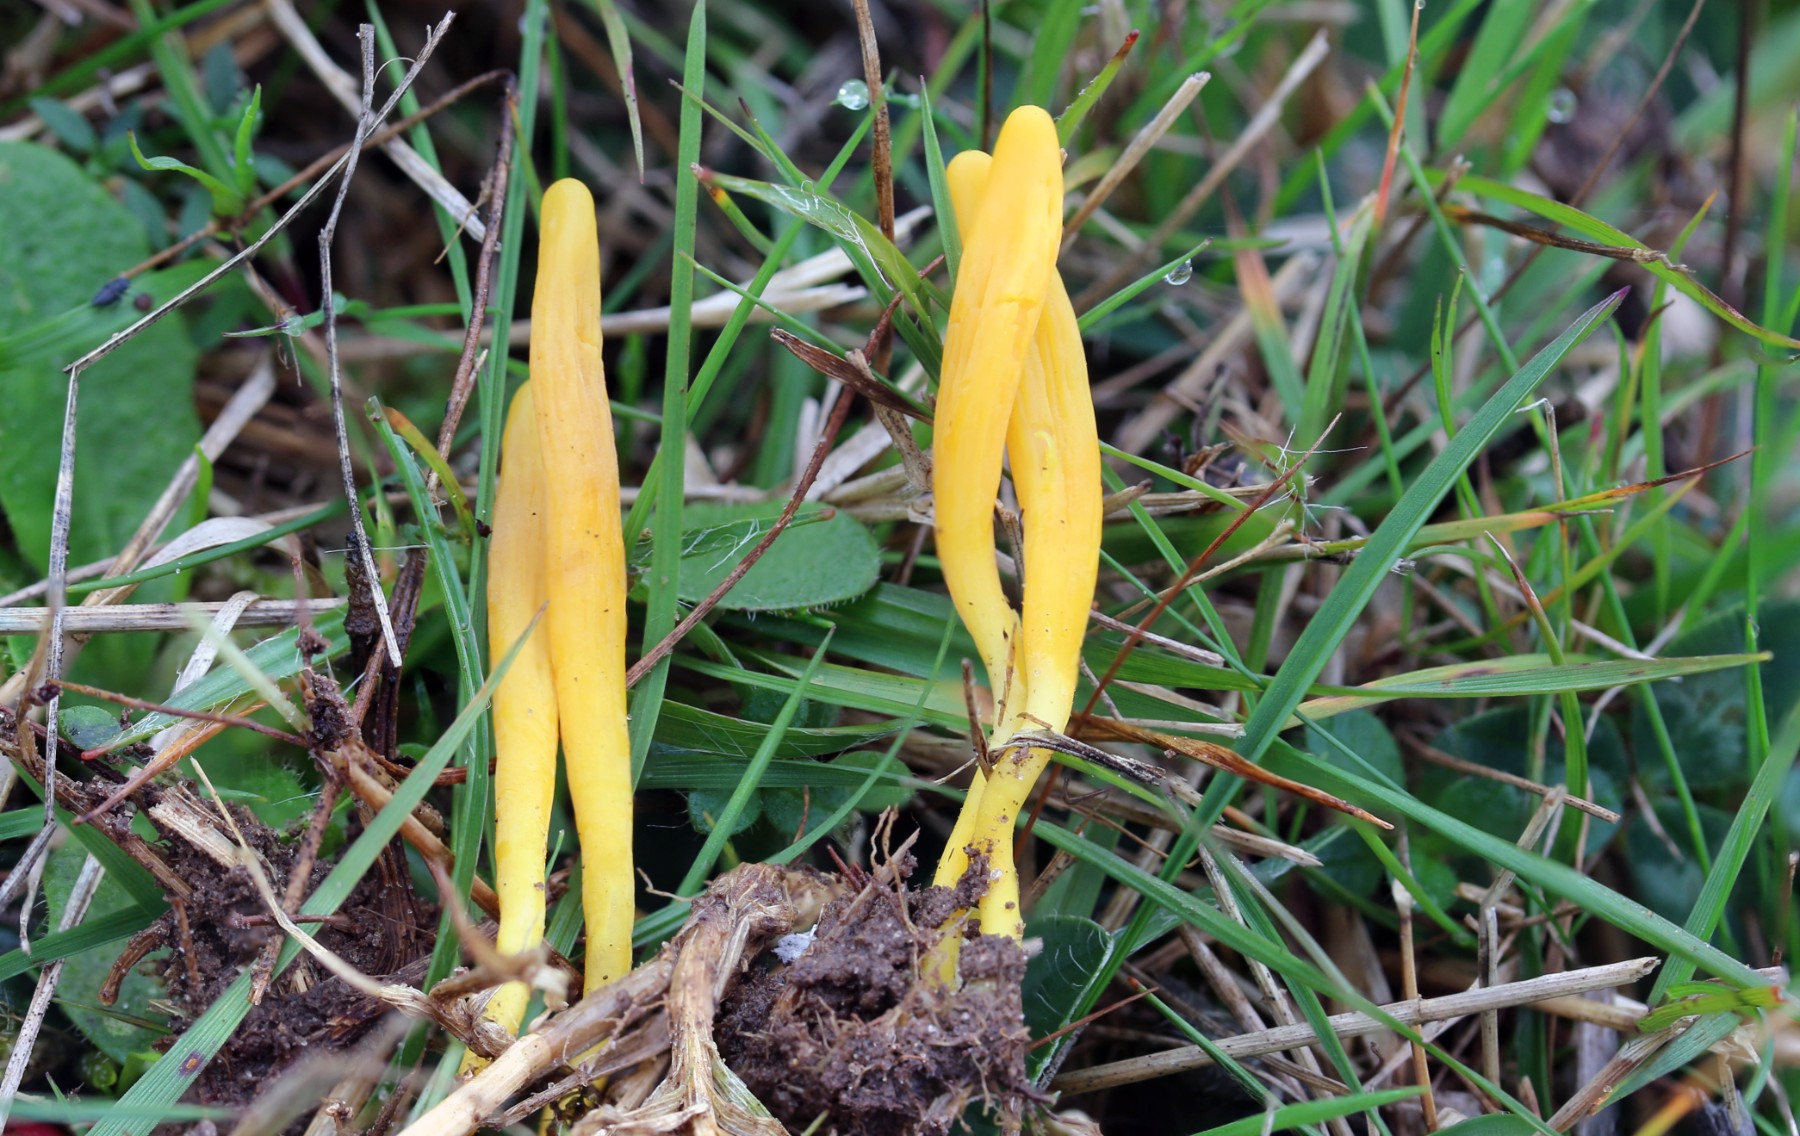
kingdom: Fungi
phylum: Basidiomycota
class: Agaricomycetes
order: Agaricales
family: Clavariaceae
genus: Clavulinopsis
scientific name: Clavulinopsis helvola
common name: orangegul køllesvamp
